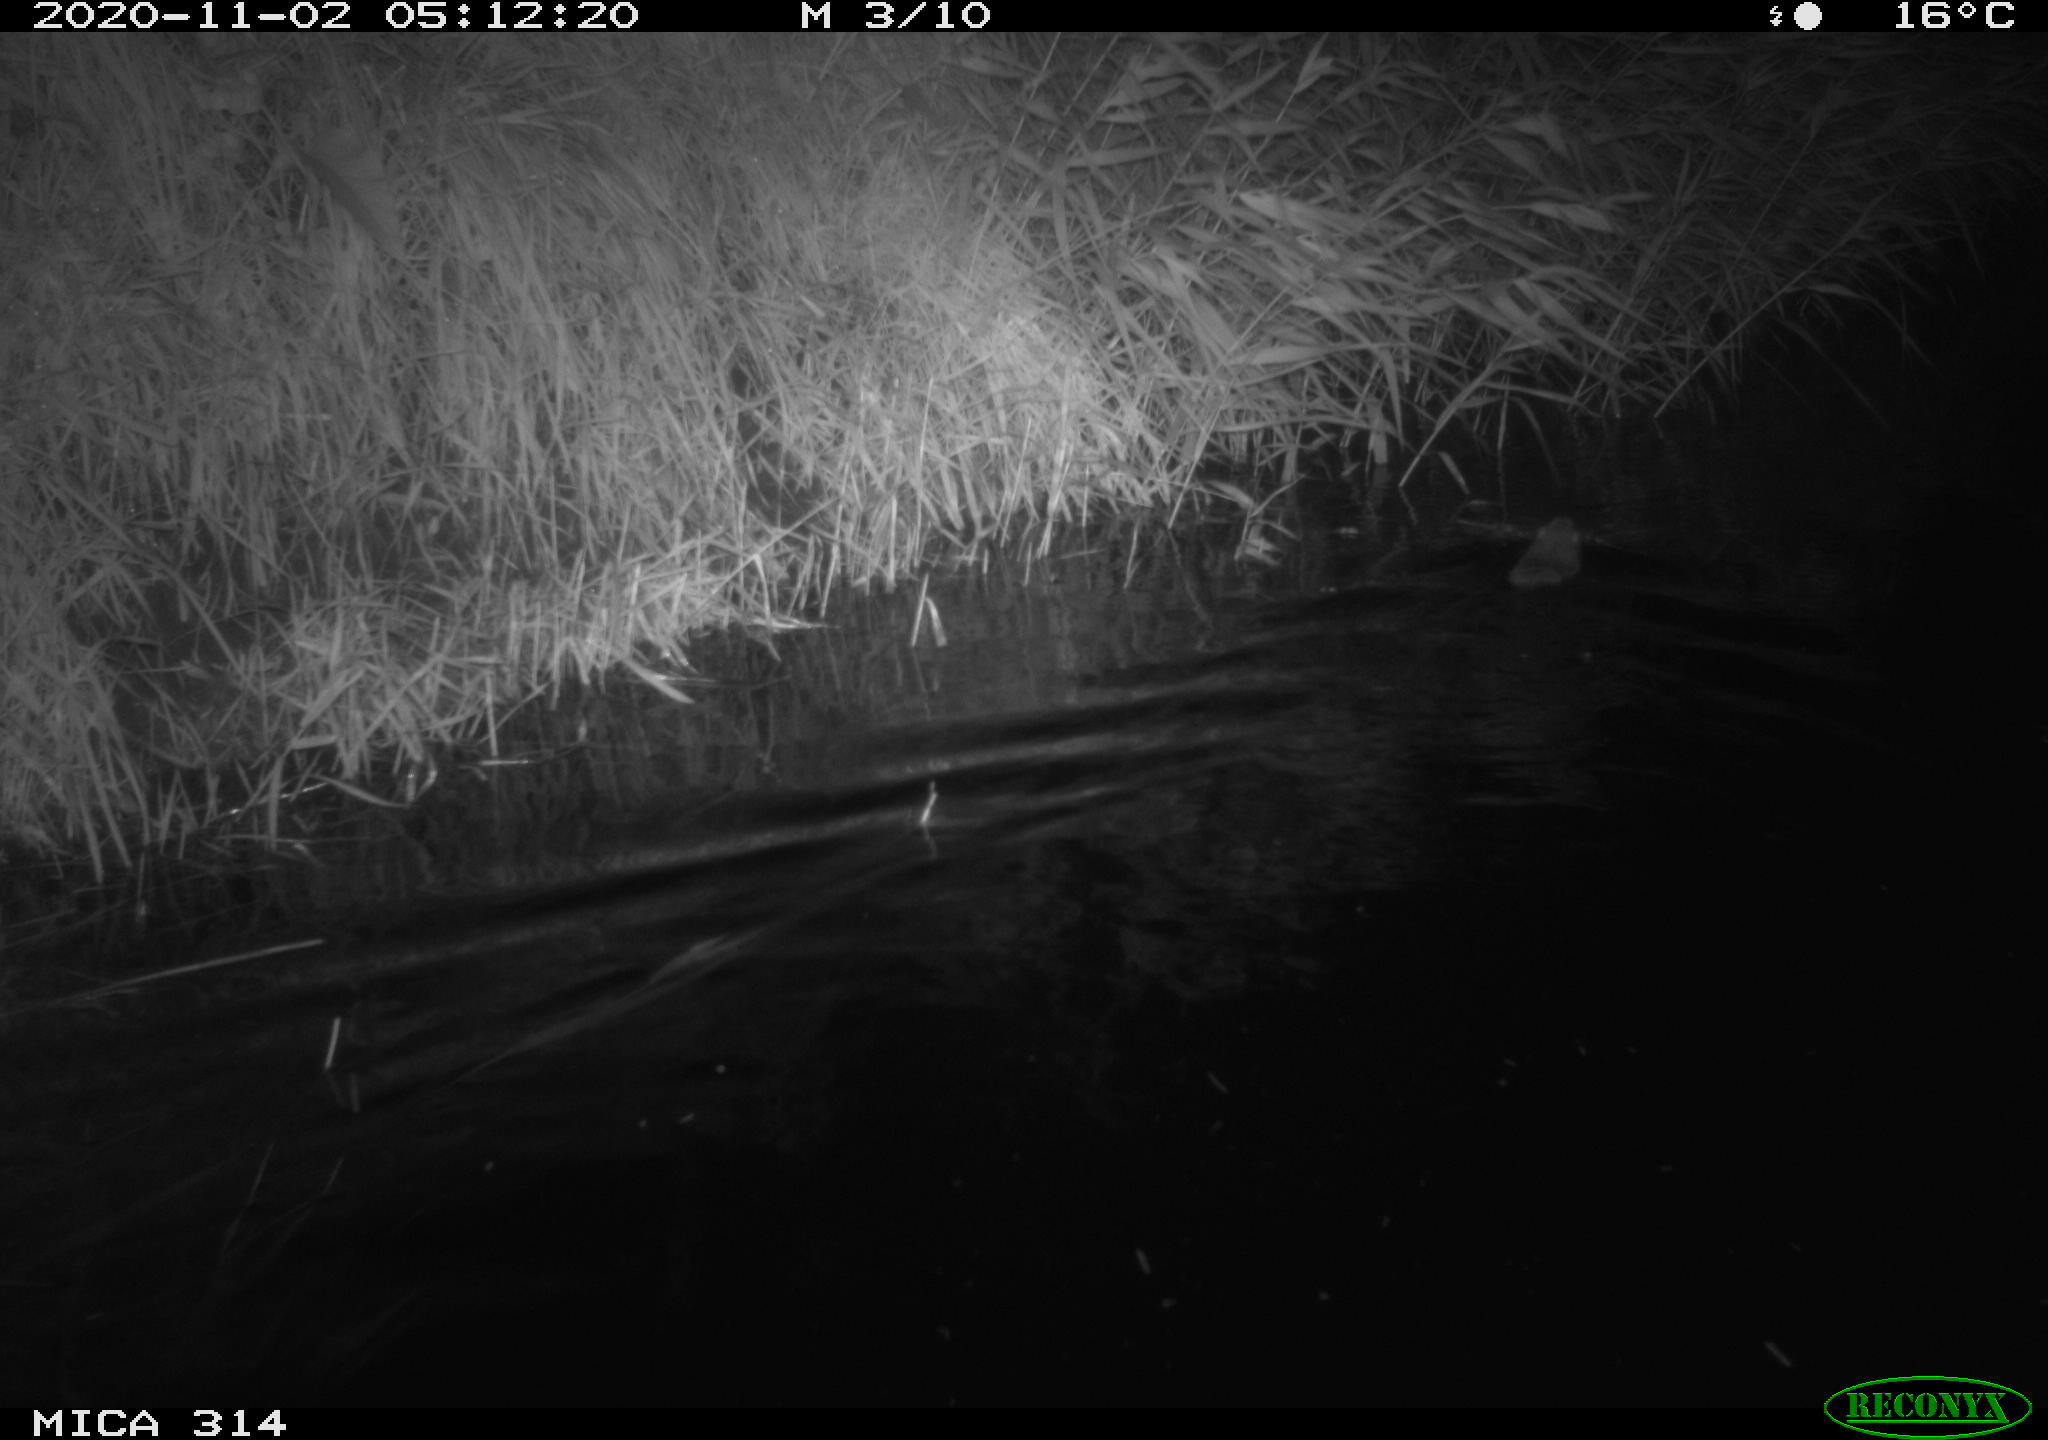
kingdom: Animalia
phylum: Chordata
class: Mammalia
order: Rodentia
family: Muridae
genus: Rattus
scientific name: Rattus norvegicus
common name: Brown rat
